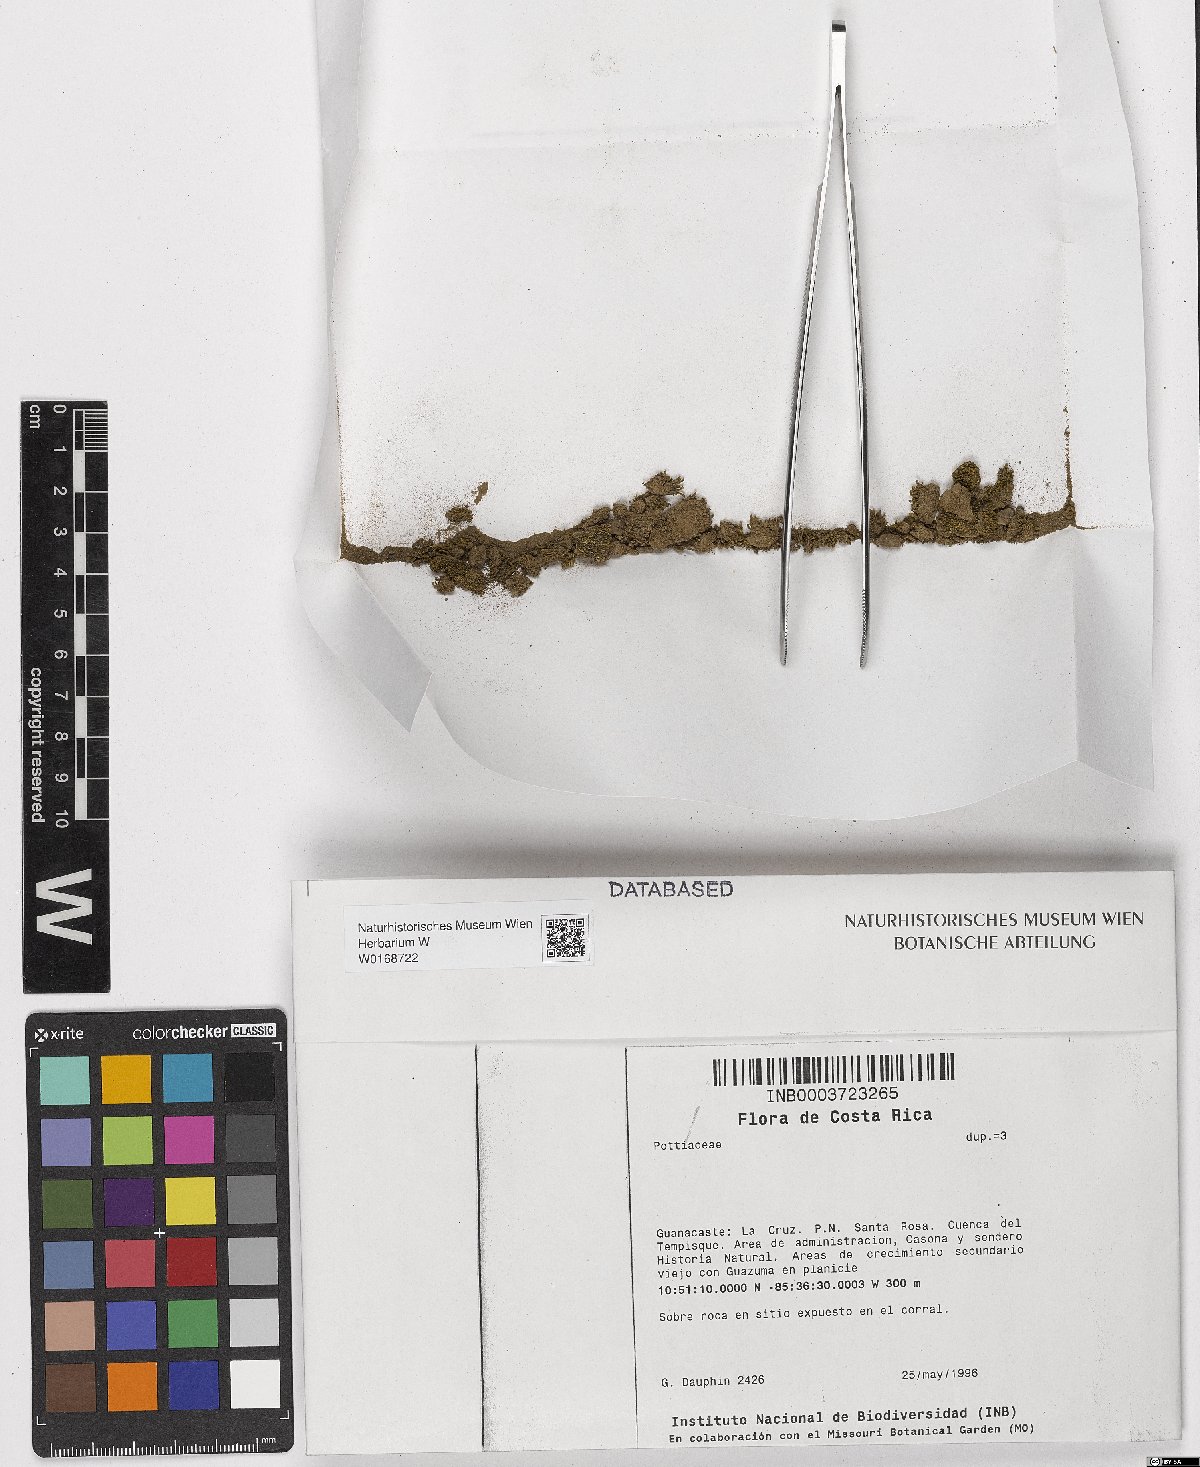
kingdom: Plantae
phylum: Bryophyta
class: Bryopsida
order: Pottiales
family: Pottiaceae
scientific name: Pottiaceae
